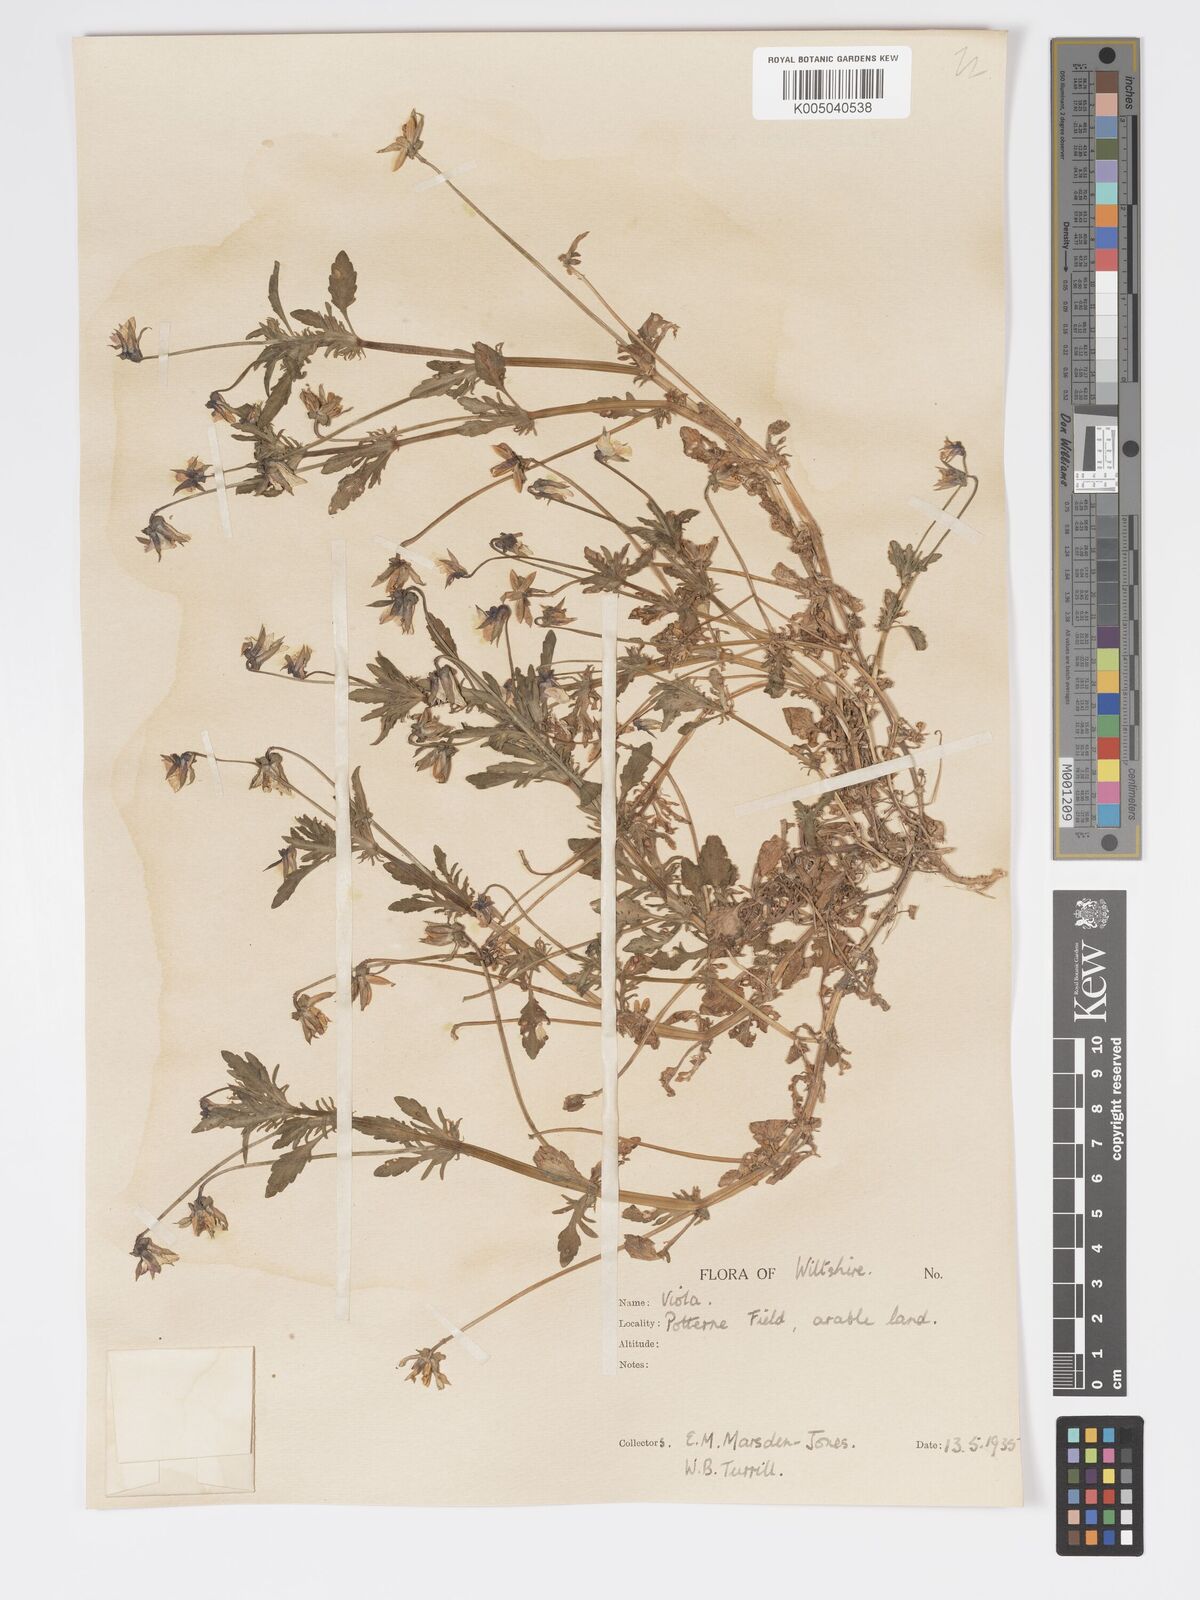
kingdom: Plantae
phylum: Tracheophyta
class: Magnoliopsida
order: Malpighiales
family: Violaceae
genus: Viola
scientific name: Viola
